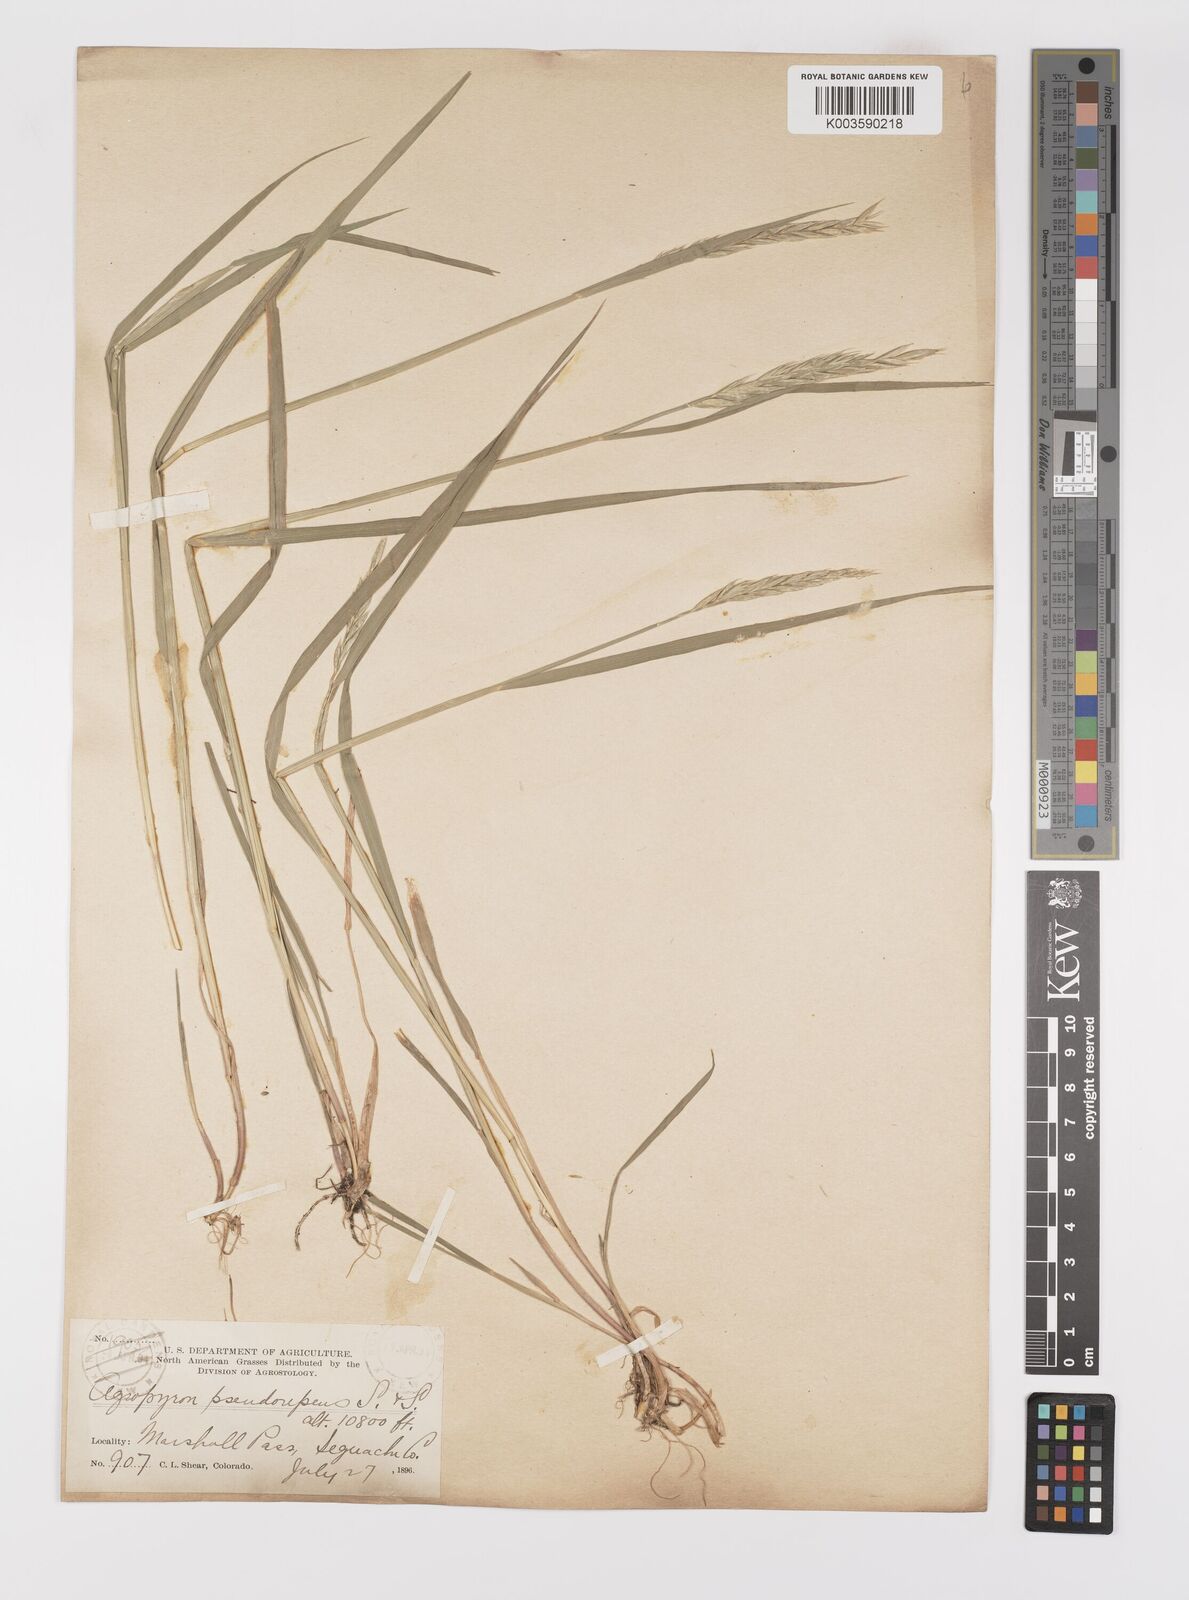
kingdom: Plantae
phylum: Tracheophyta
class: Liliopsida
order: Poales
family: Poaceae
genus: Elymus
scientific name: Elymus violaceus
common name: Arctic wheatgrass
